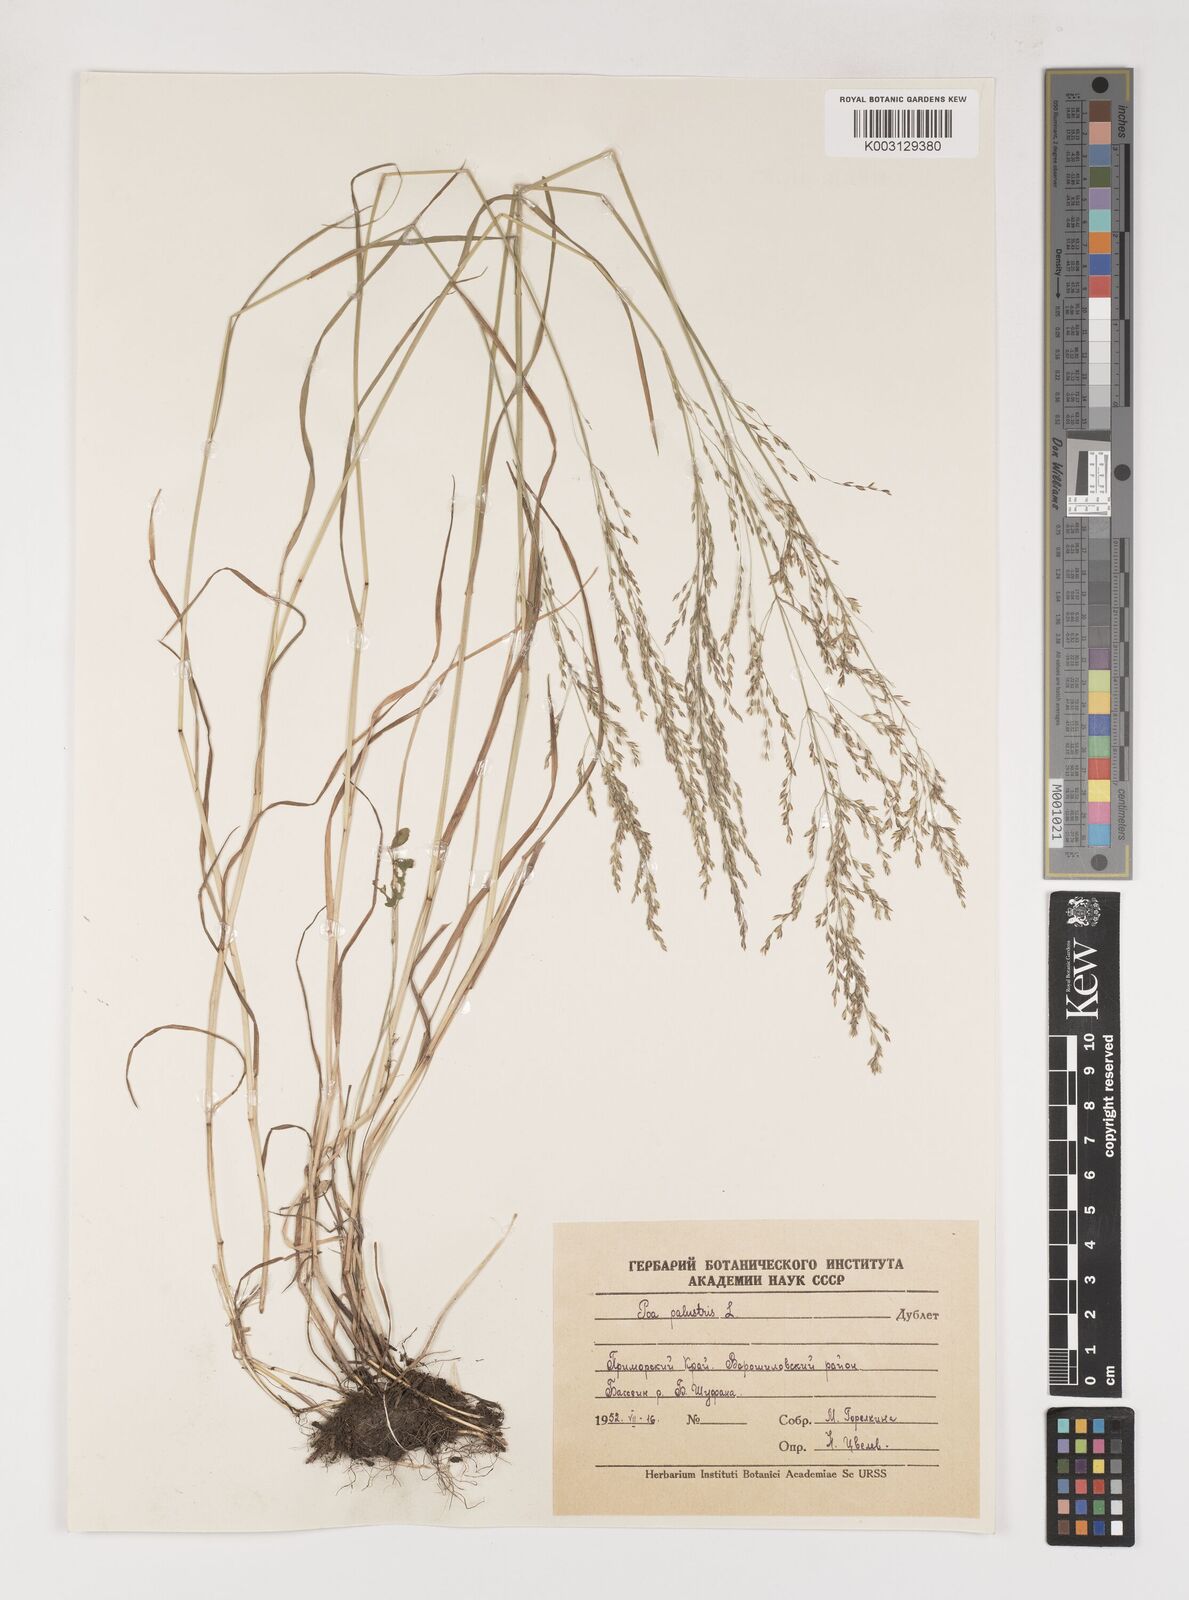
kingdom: Plantae
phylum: Tracheophyta
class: Liliopsida
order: Poales
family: Poaceae
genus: Poa
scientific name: Poa palustris
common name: Swamp meadow-grass
